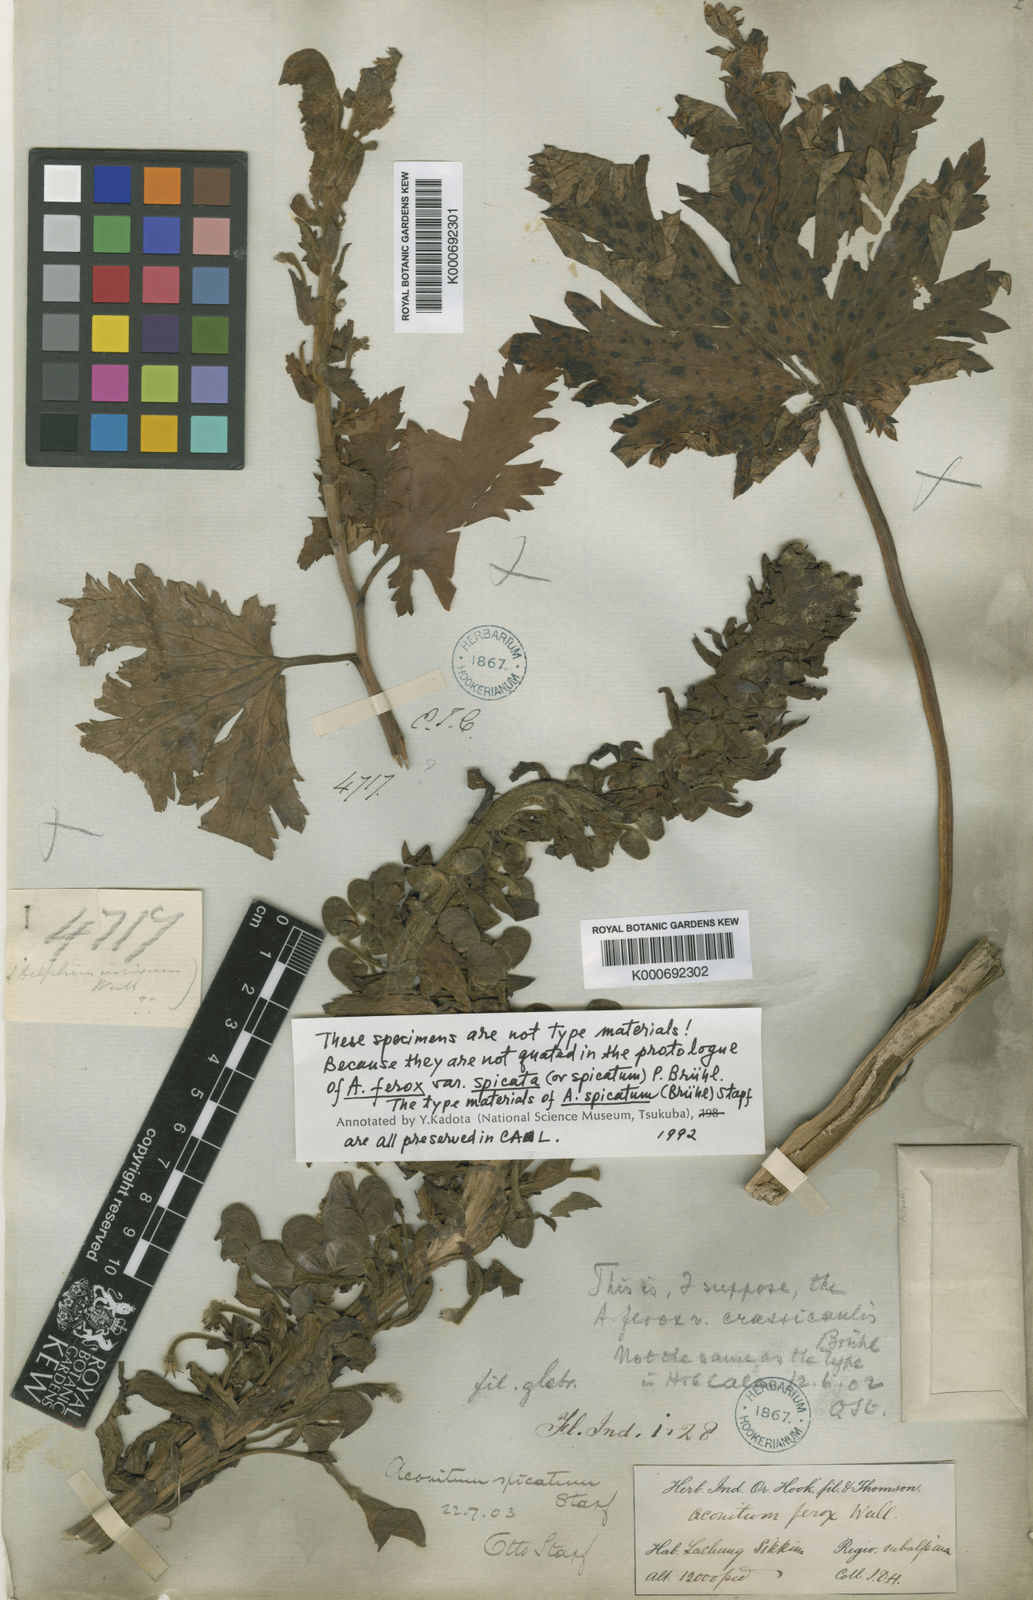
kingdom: Plantae
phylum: Tracheophyta
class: Magnoliopsida
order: Ranunculales
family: Ranunculaceae
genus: Aconitum
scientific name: Aconitum lethale
